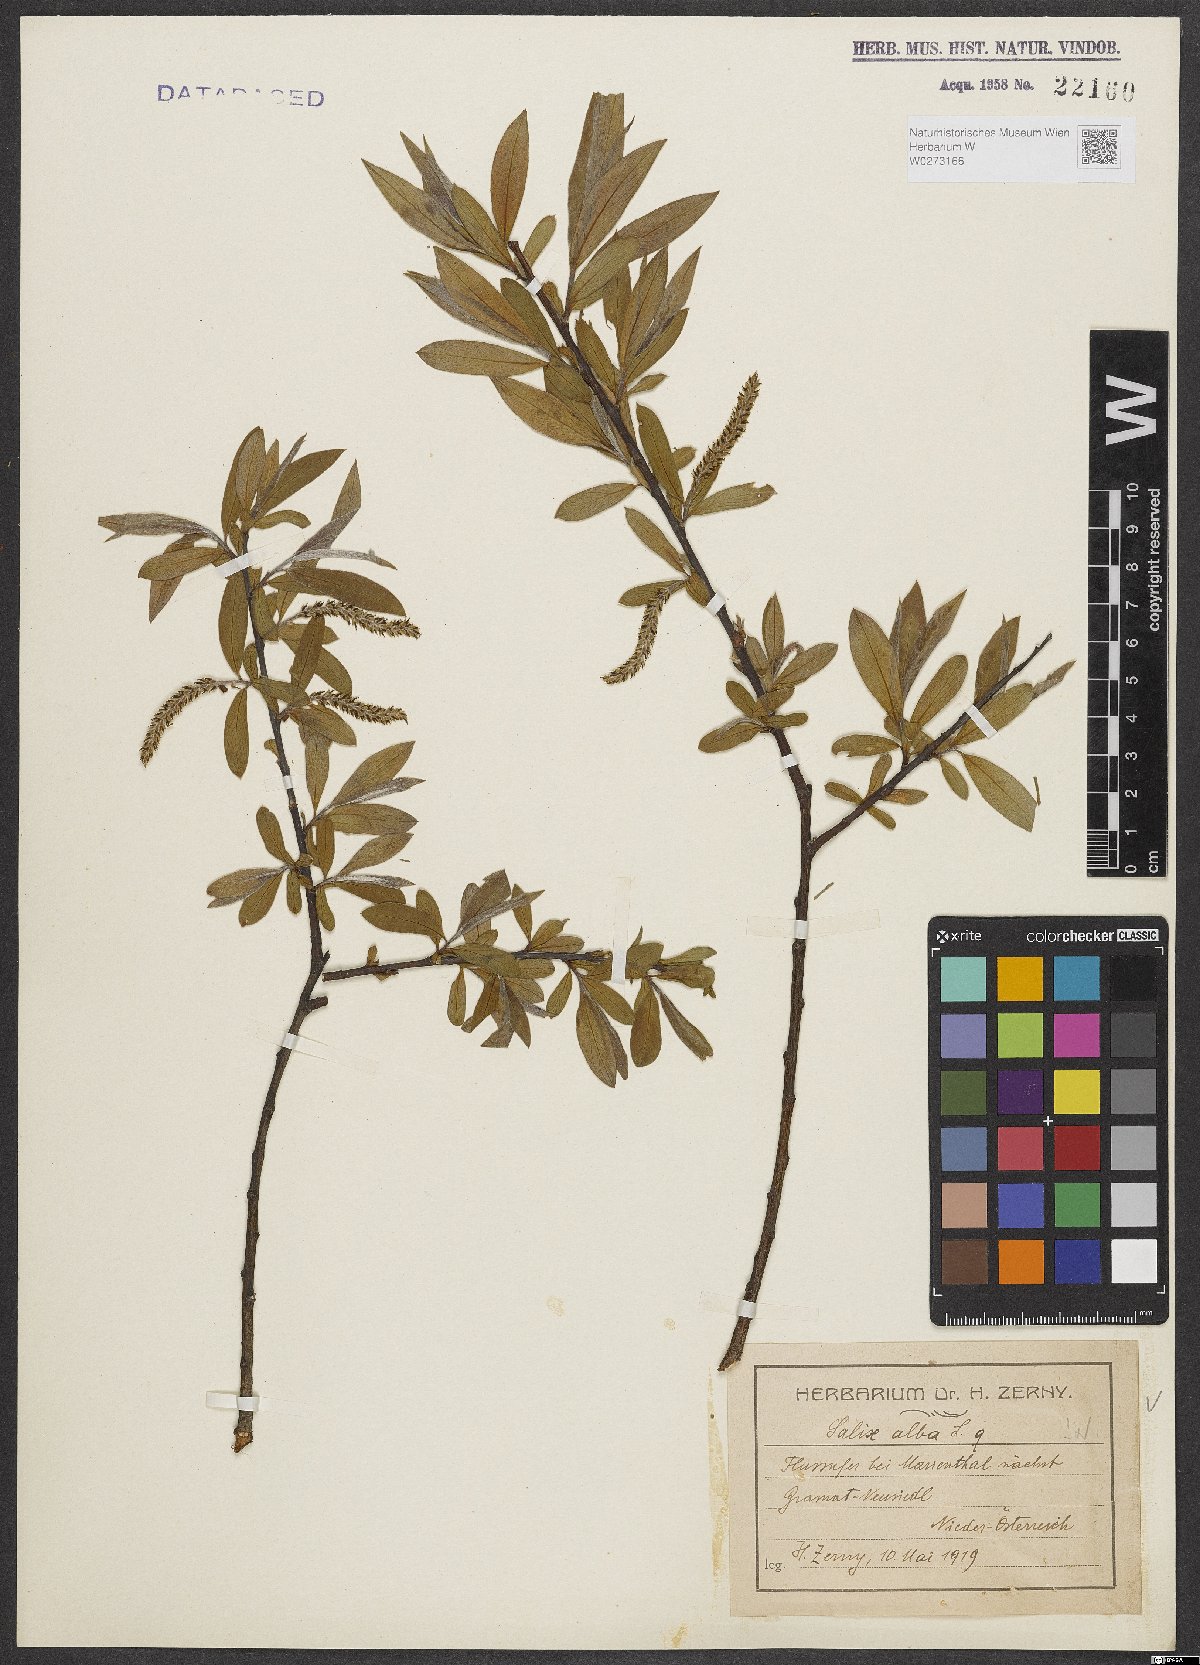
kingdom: Plantae
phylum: Tracheophyta
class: Magnoliopsida
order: Malpighiales
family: Salicaceae
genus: Salix
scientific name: Salix alba
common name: White willow
